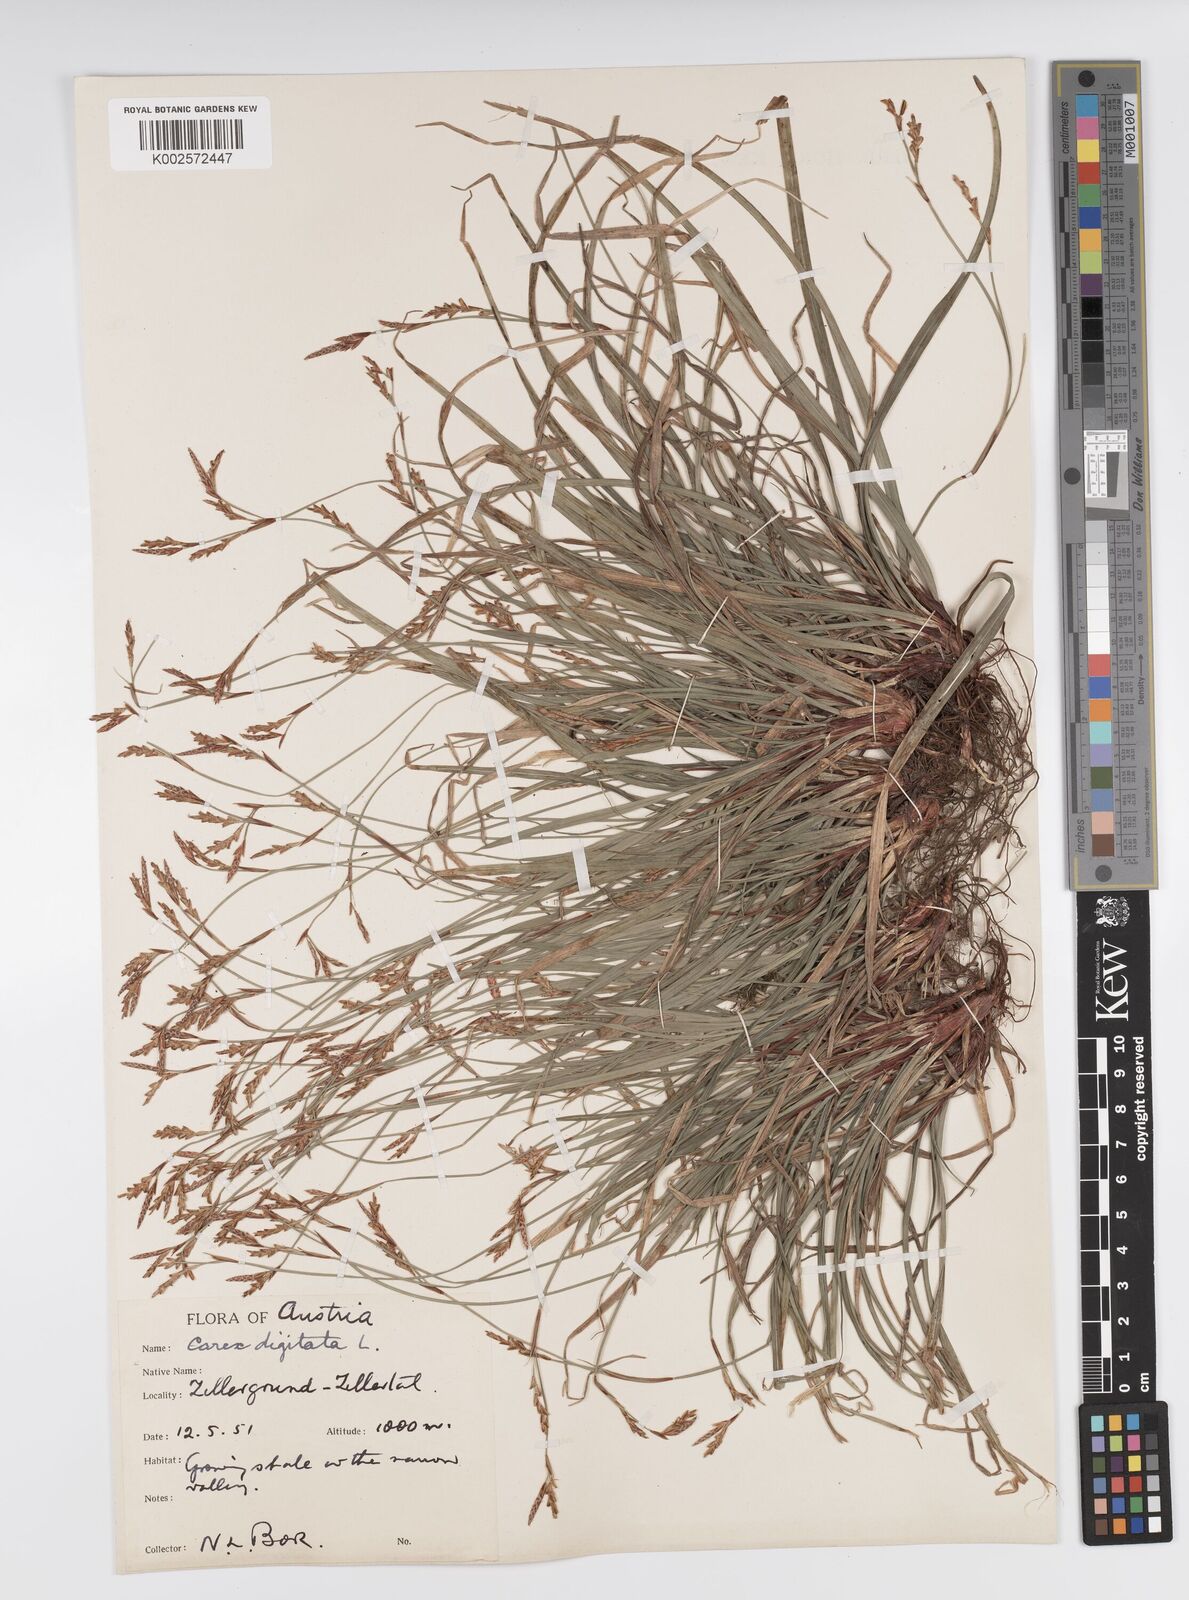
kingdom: Plantae
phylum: Tracheophyta
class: Liliopsida
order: Poales
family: Cyperaceae
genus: Carex
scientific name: Carex digitata
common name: Fingered sedge
